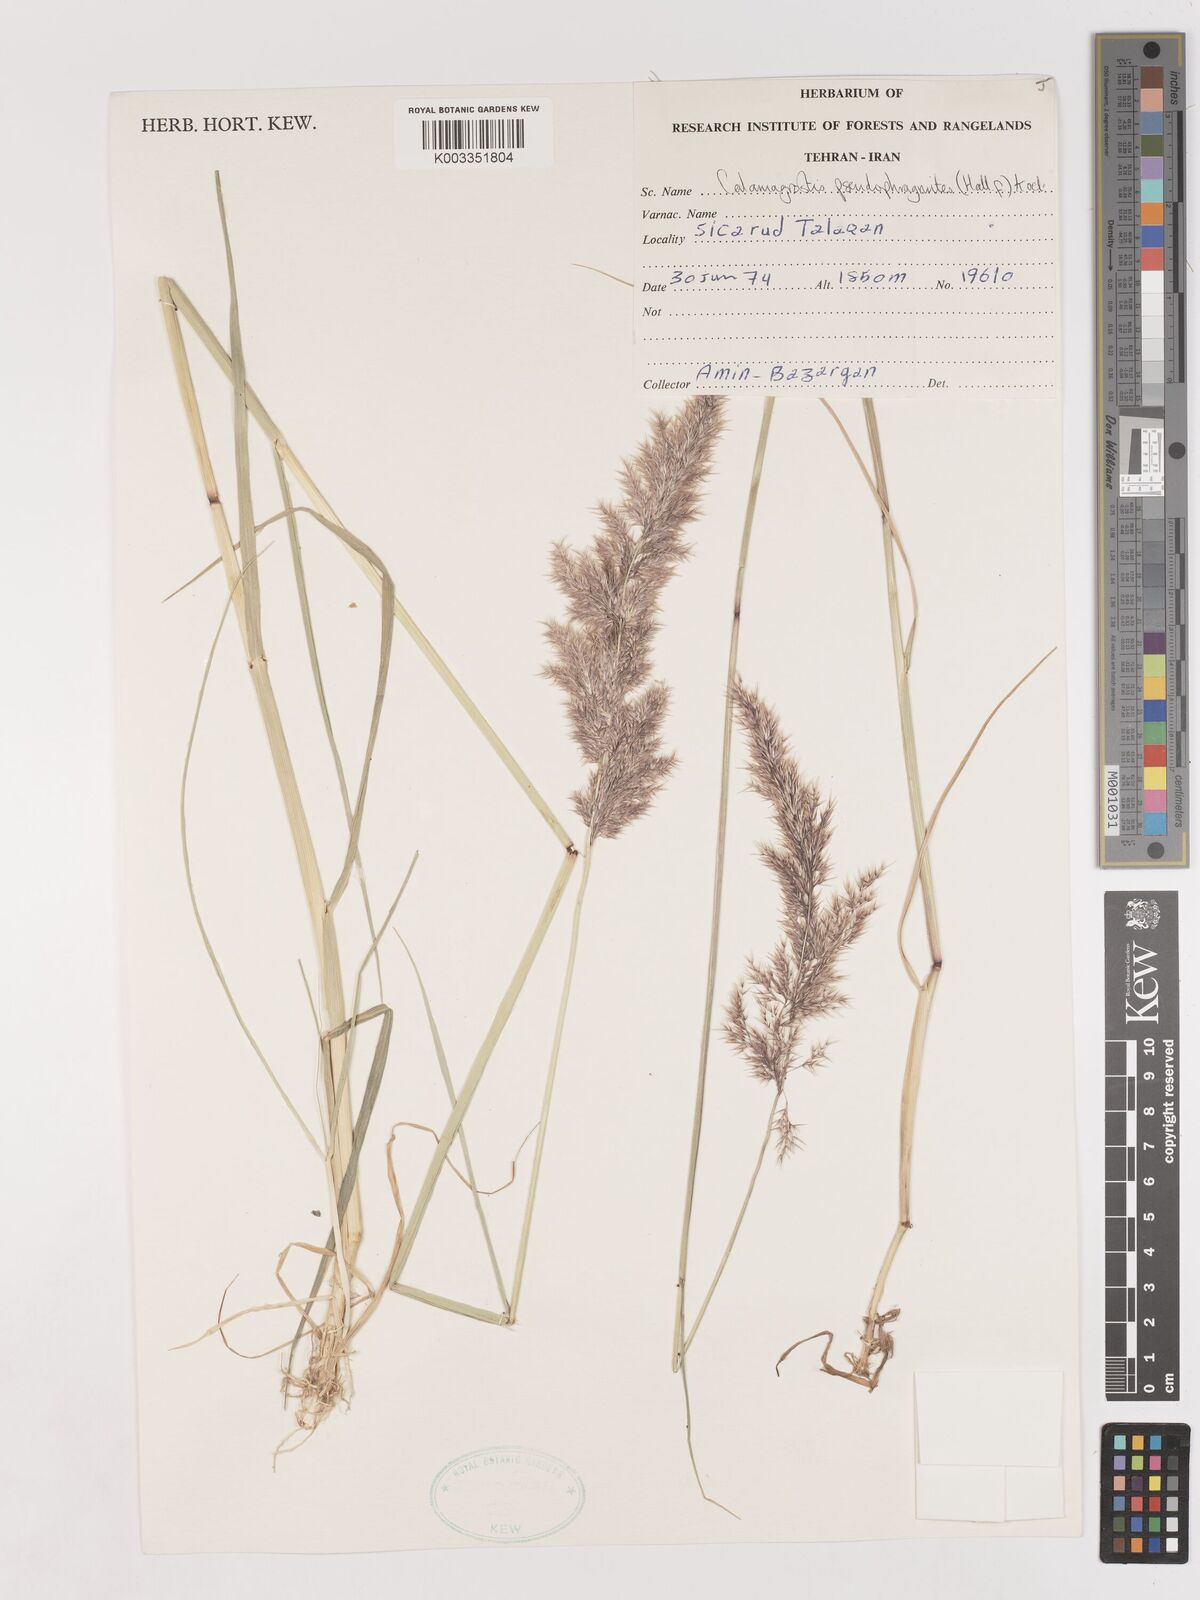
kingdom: Plantae
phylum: Tracheophyta
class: Liliopsida
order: Poales
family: Poaceae
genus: Calamagrostis
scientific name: Calamagrostis pseudophragmites
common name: Coastal small-reed
